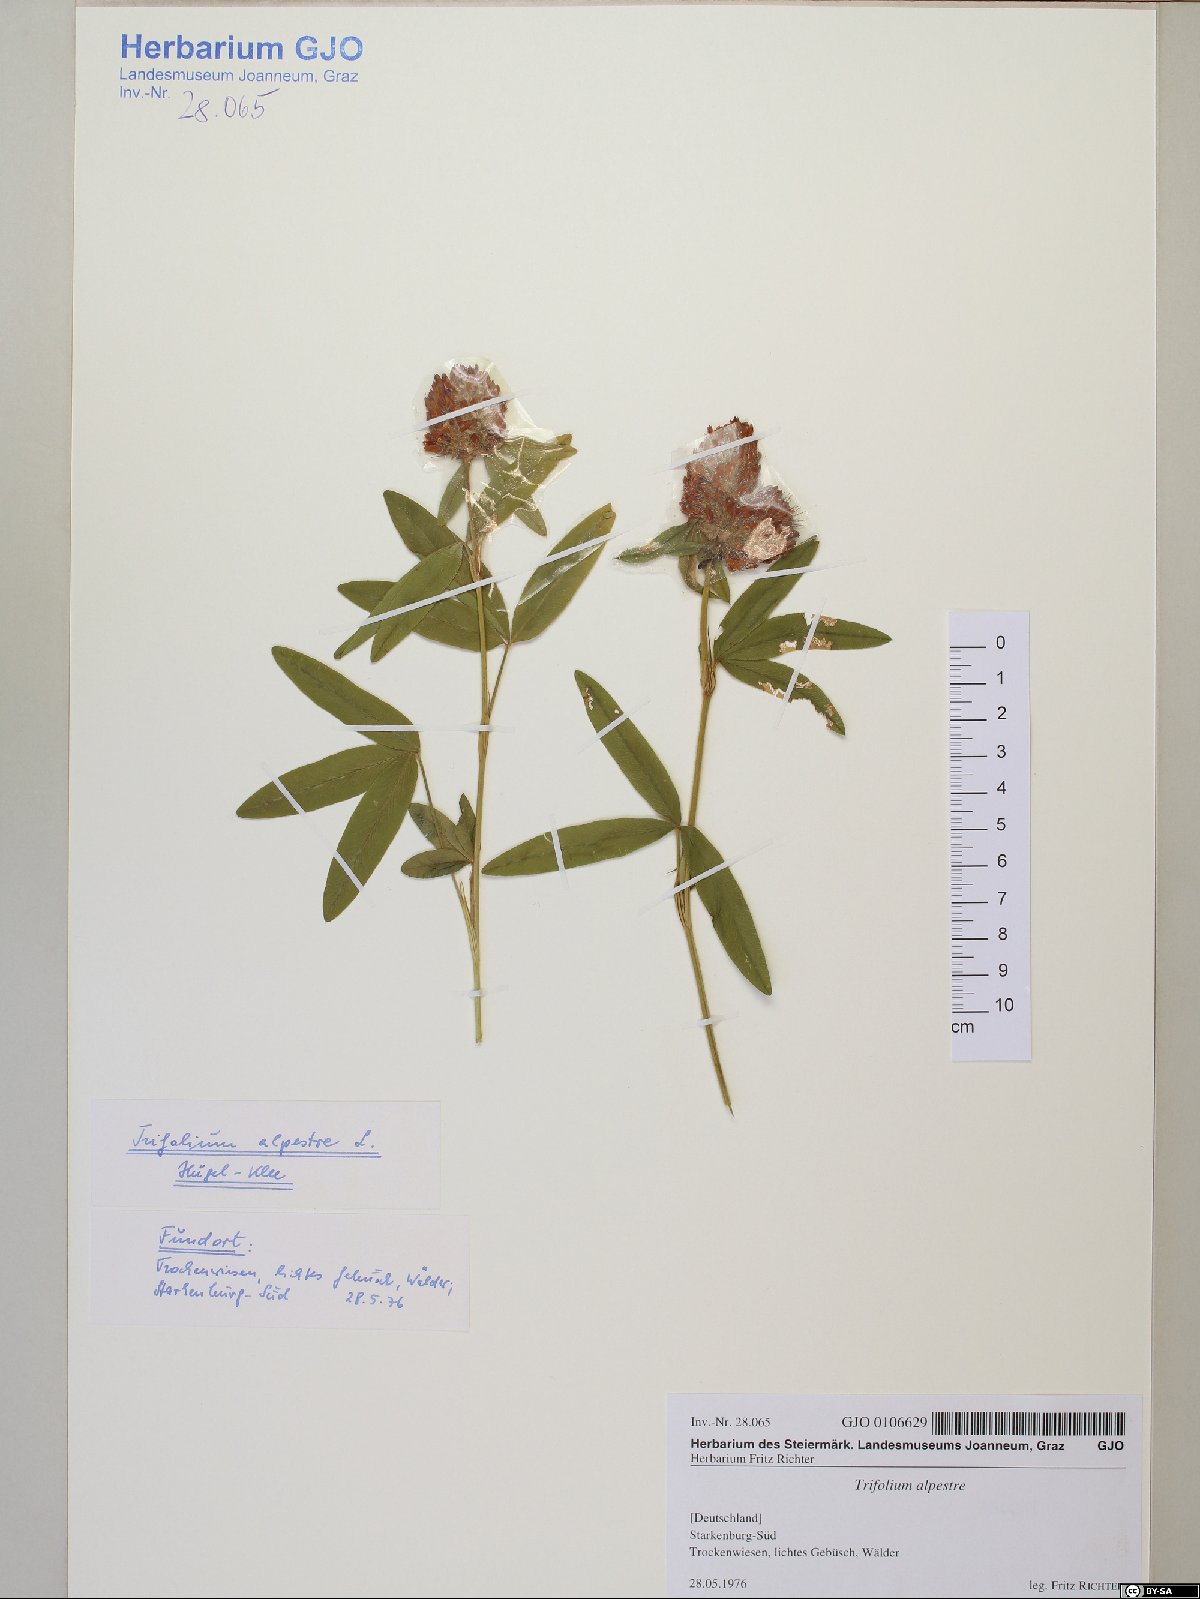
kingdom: Plantae
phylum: Tracheophyta
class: Magnoliopsida
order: Fabales
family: Fabaceae
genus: Trifolium
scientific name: Trifolium alpestre
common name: Owl-head clover
